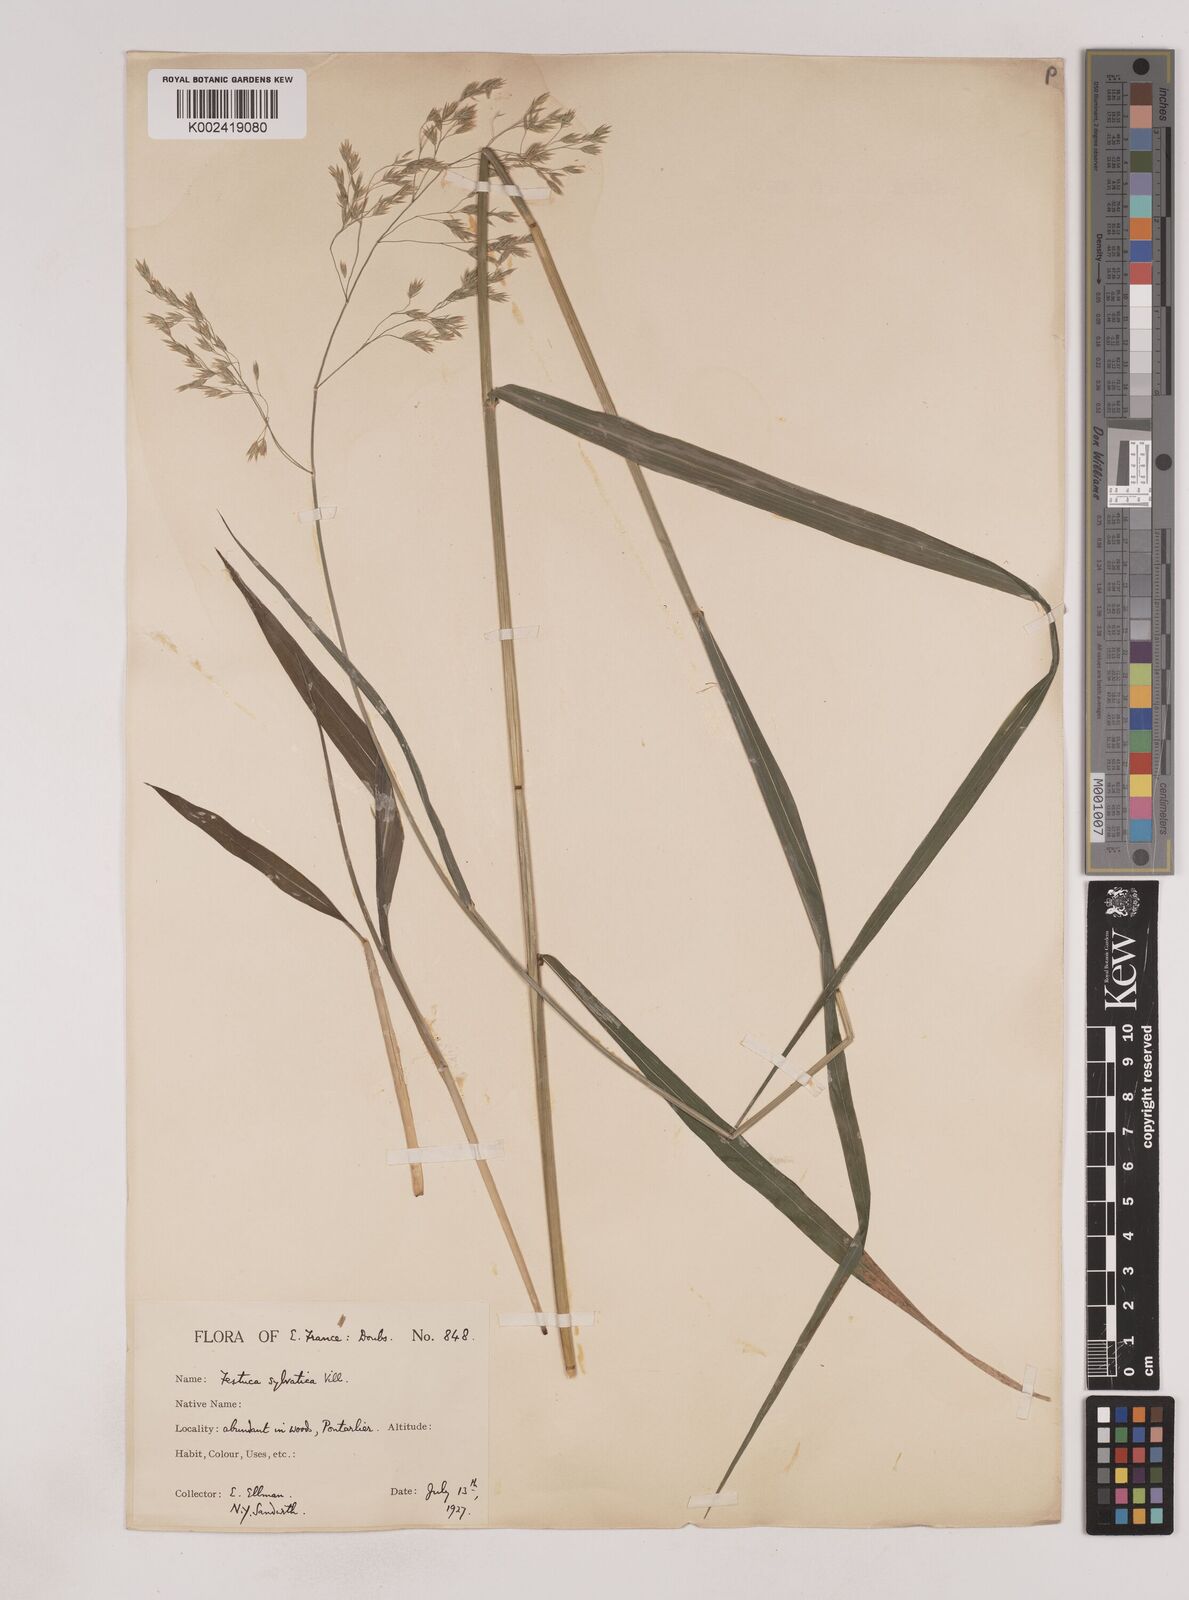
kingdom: Plantae
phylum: Tracheophyta
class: Liliopsida
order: Poales
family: Poaceae
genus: Festuca
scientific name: Festuca drymeja
